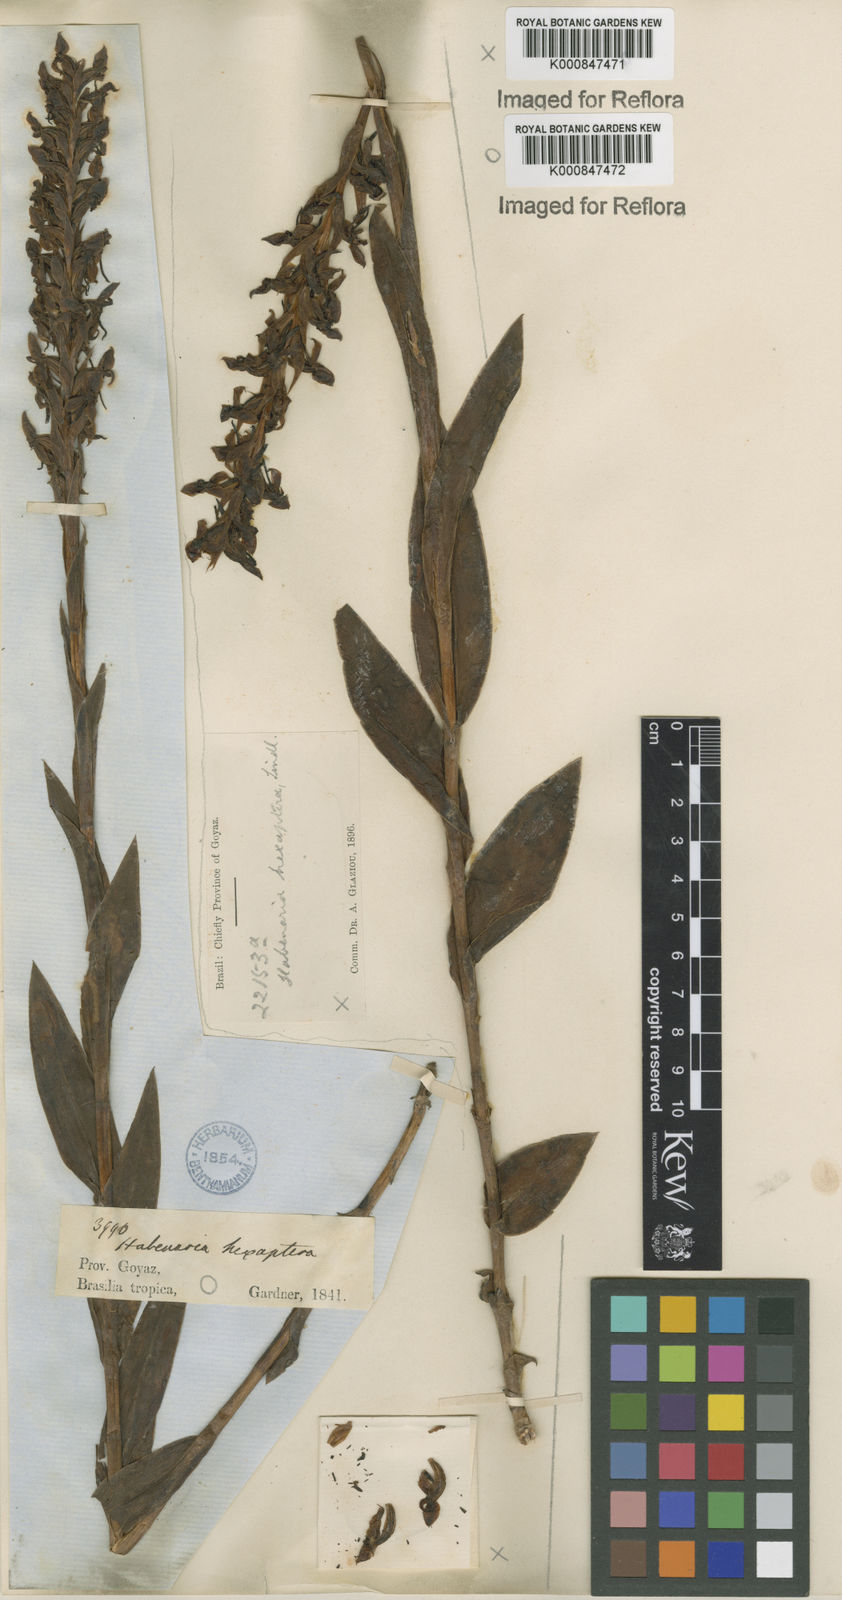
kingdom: Plantae
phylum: Tracheophyta
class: Liliopsida
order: Asparagales
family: Orchidaceae
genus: Habenaria
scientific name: Habenaria hexaptera
